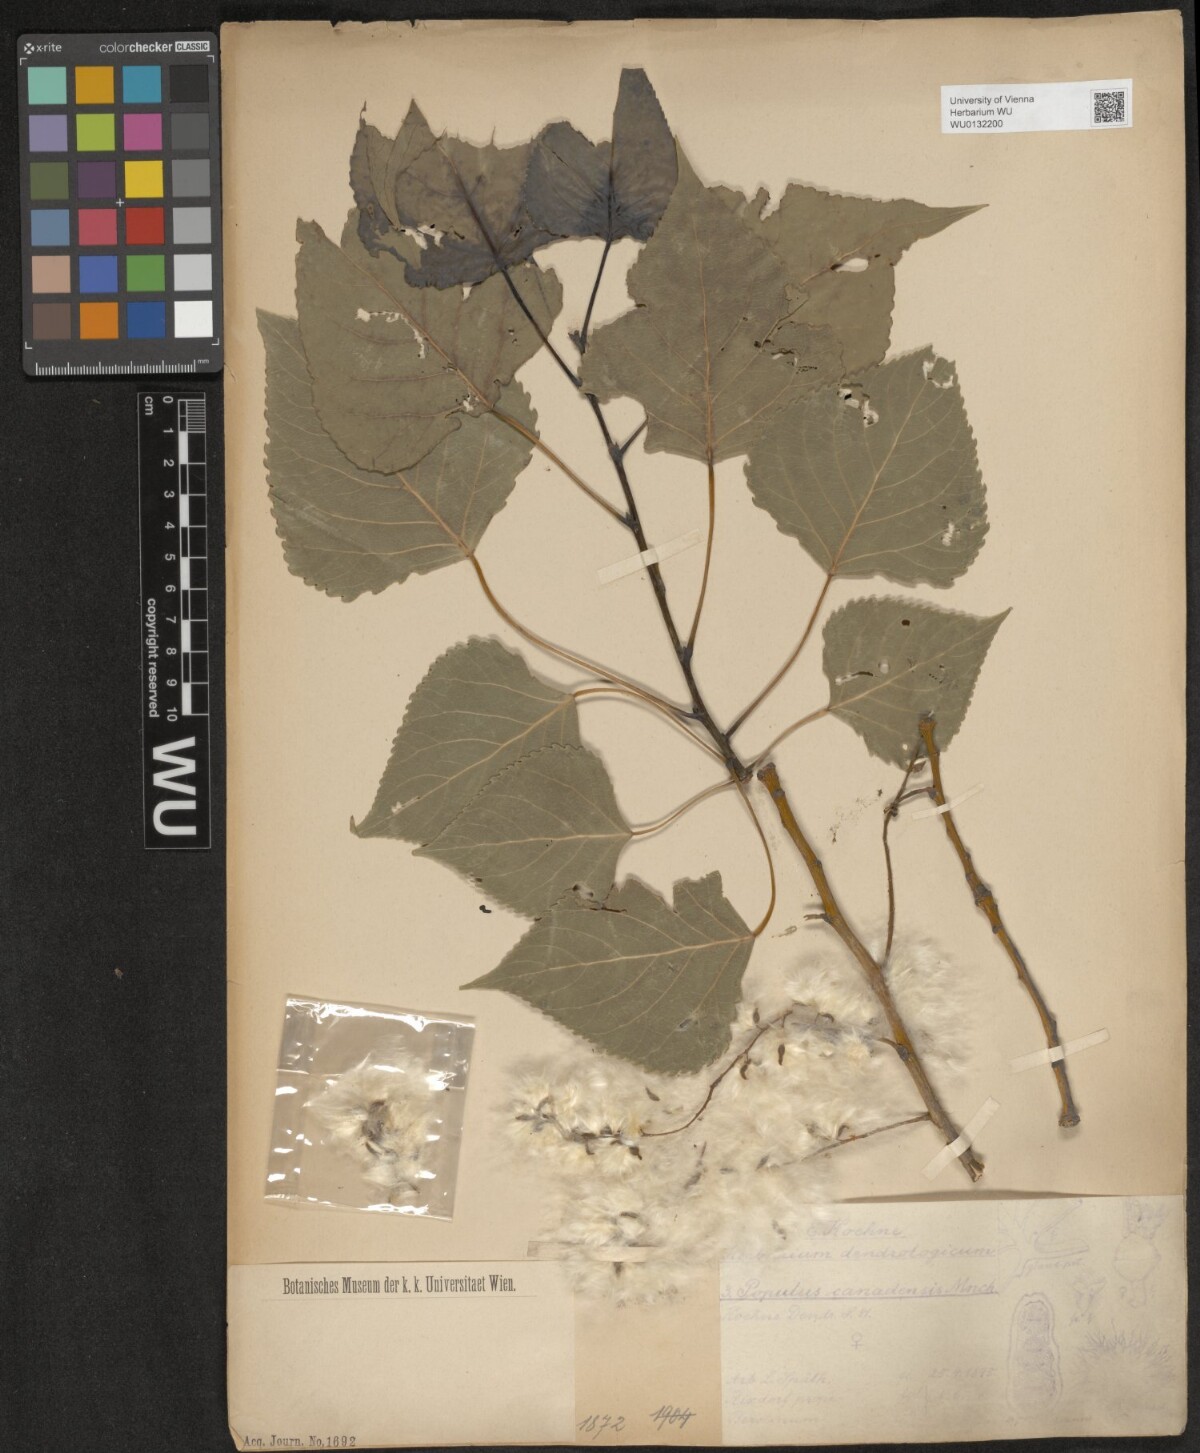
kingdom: Plantae
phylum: Tracheophyta
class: Magnoliopsida
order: Malpighiales
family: Salicaceae
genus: Populus
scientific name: Populus canadensis
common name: Carolina poplar
